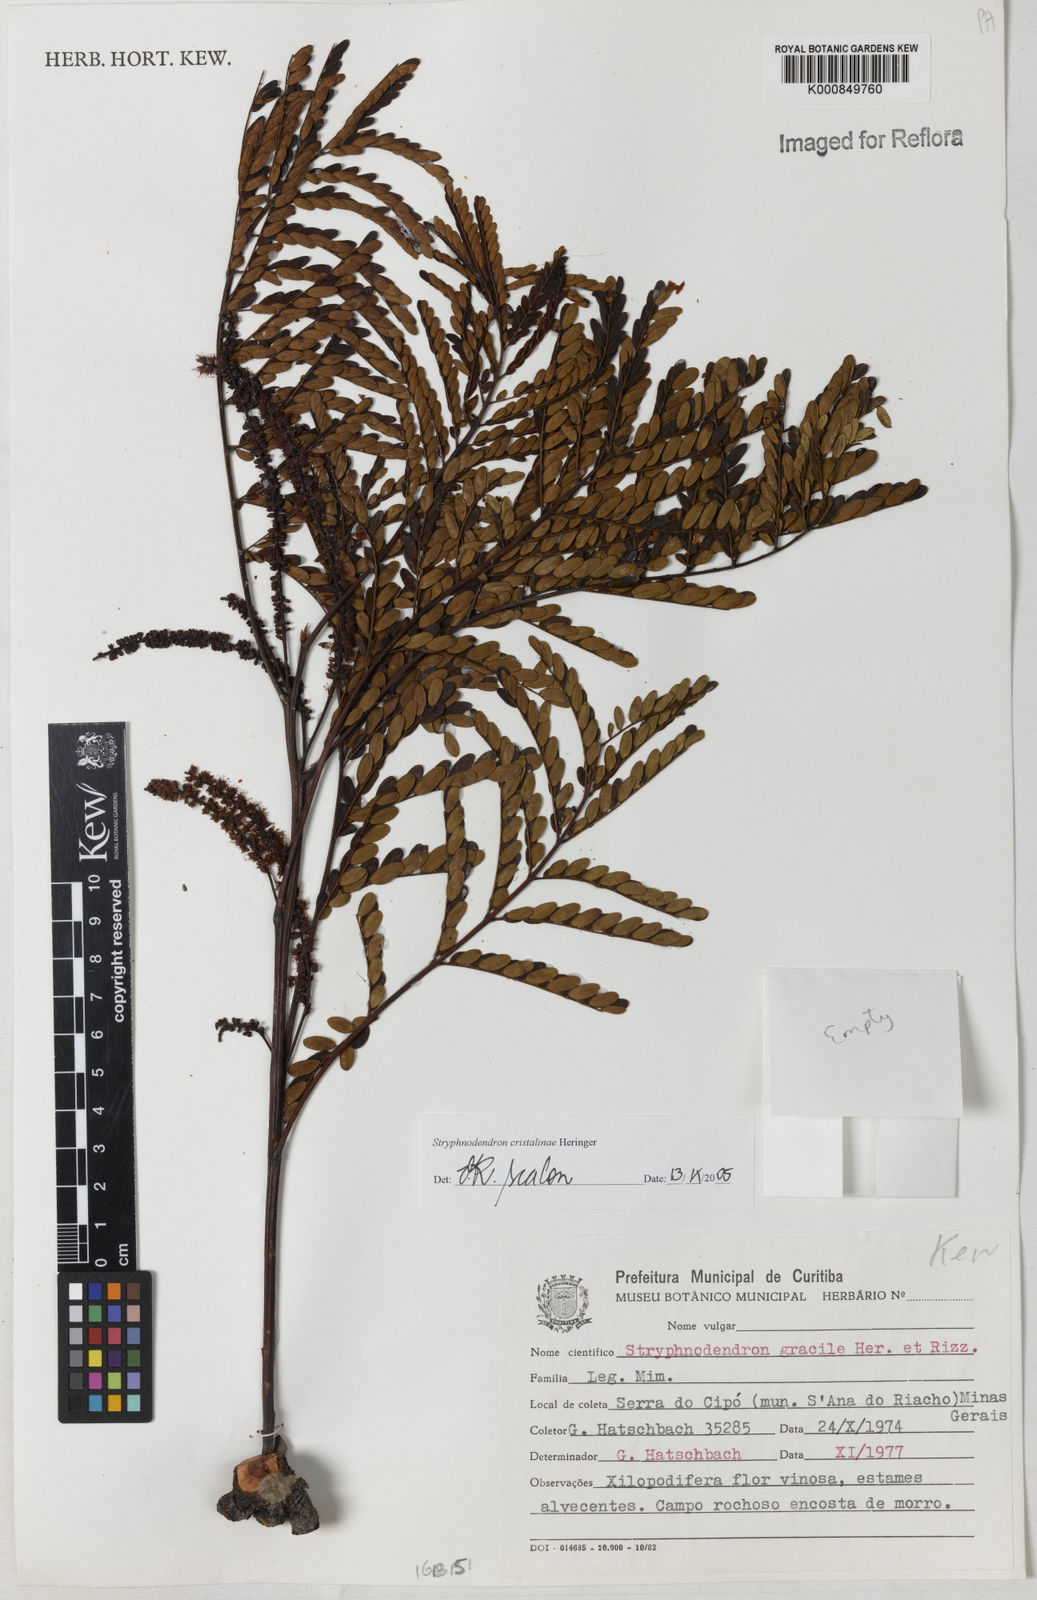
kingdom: Plantae
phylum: Tracheophyta
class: Magnoliopsida
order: Fabales
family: Fabaceae
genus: Stryphnodendron
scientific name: Stryphnodendron cristalinae
